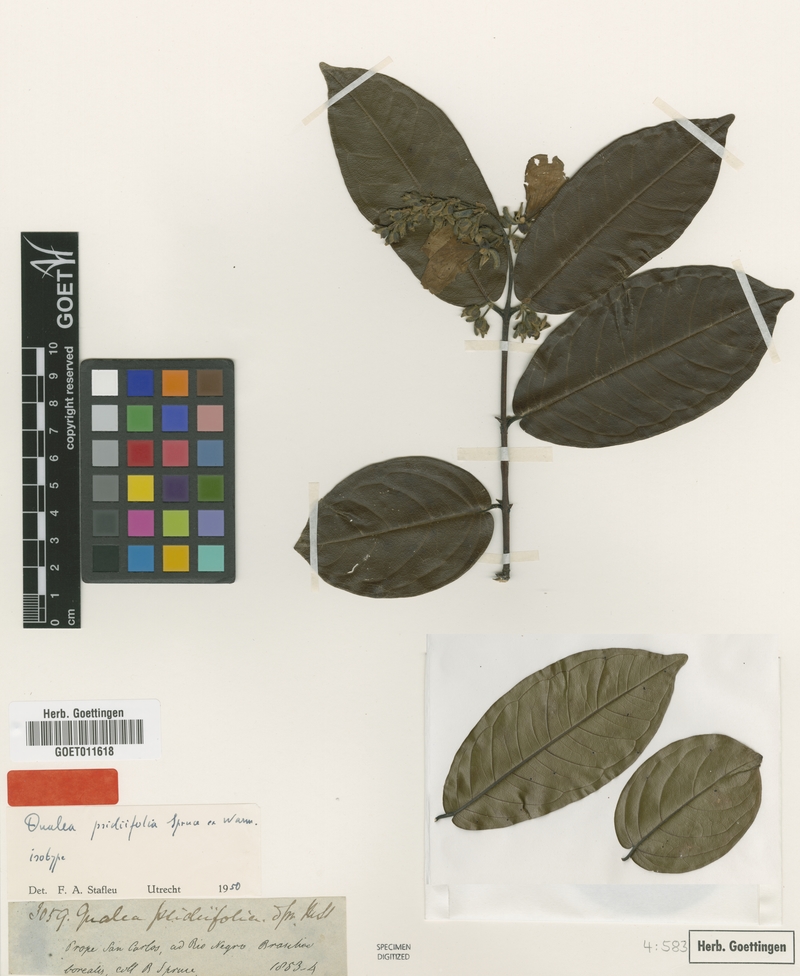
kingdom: Plantae
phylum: Tracheophyta
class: Magnoliopsida
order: Myrtales
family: Vochysiaceae
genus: Qualea
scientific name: Qualea psidiifolia
